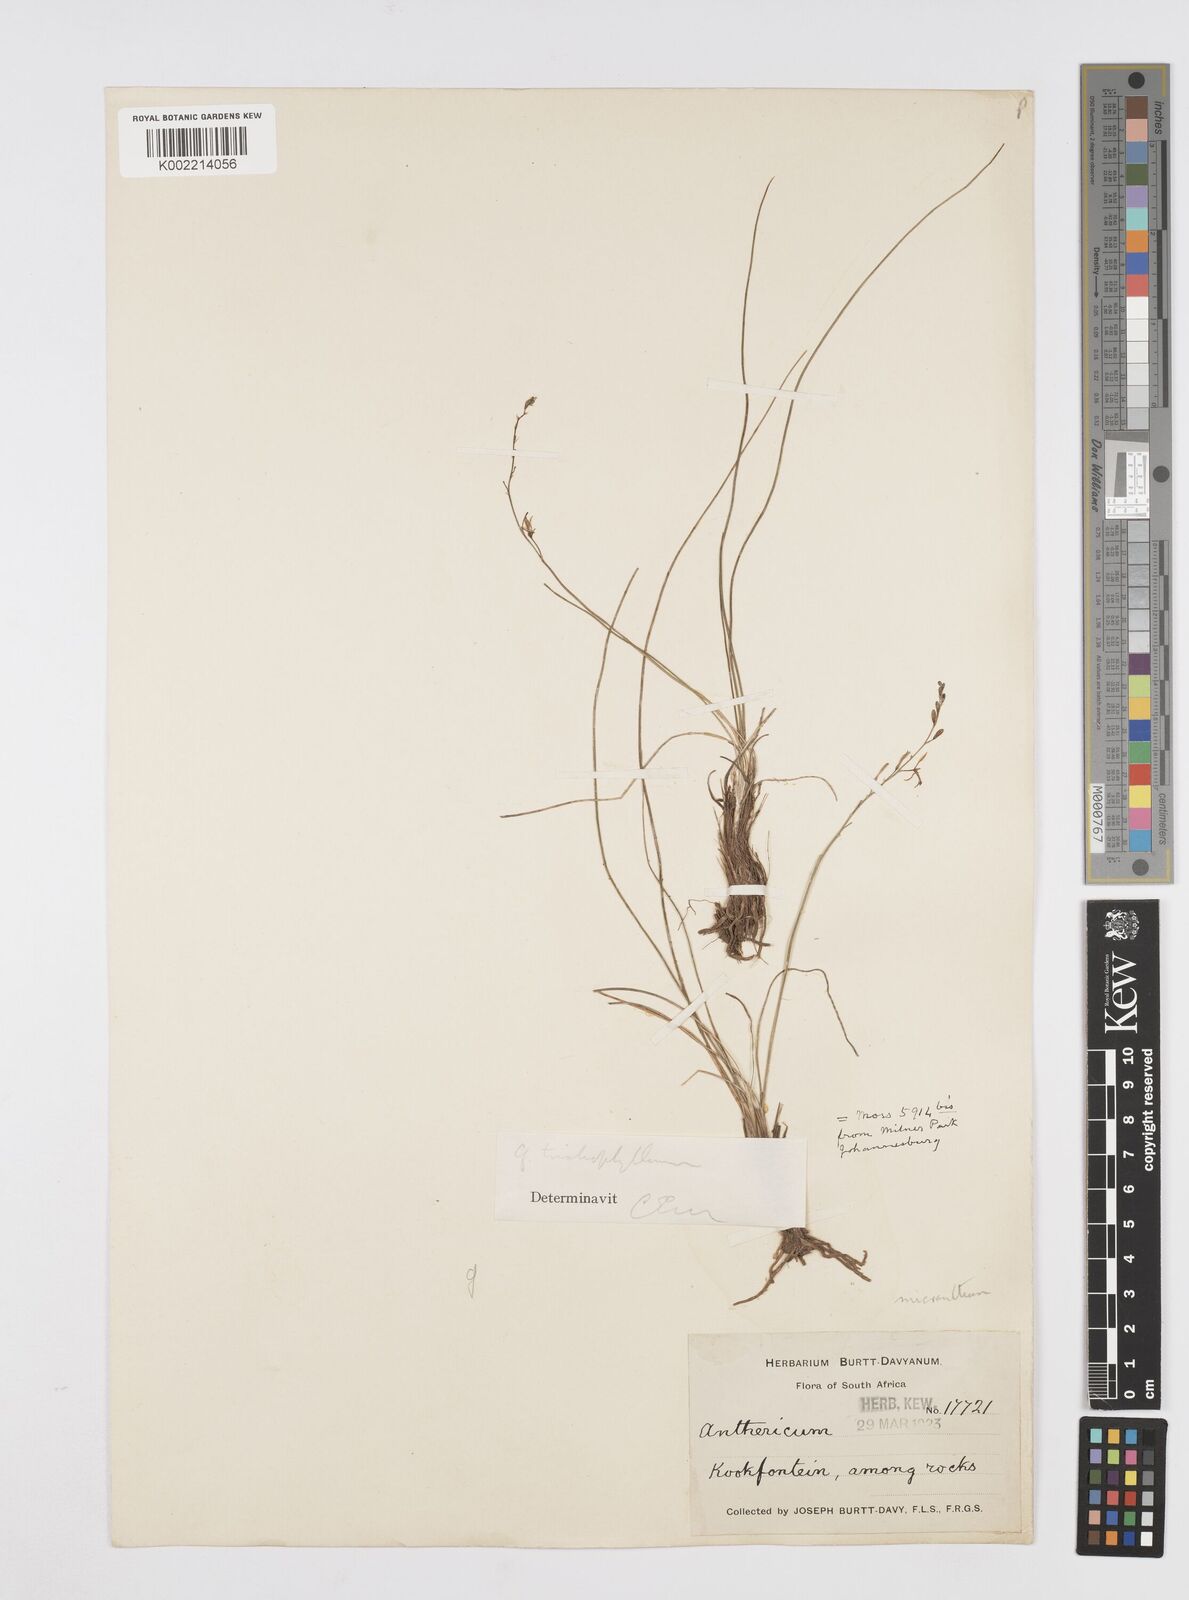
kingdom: Plantae
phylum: Tracheophyta
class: Liliopsida
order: Asparagales
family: Asphodelaceae
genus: Trachyandra
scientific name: Trachyandra
